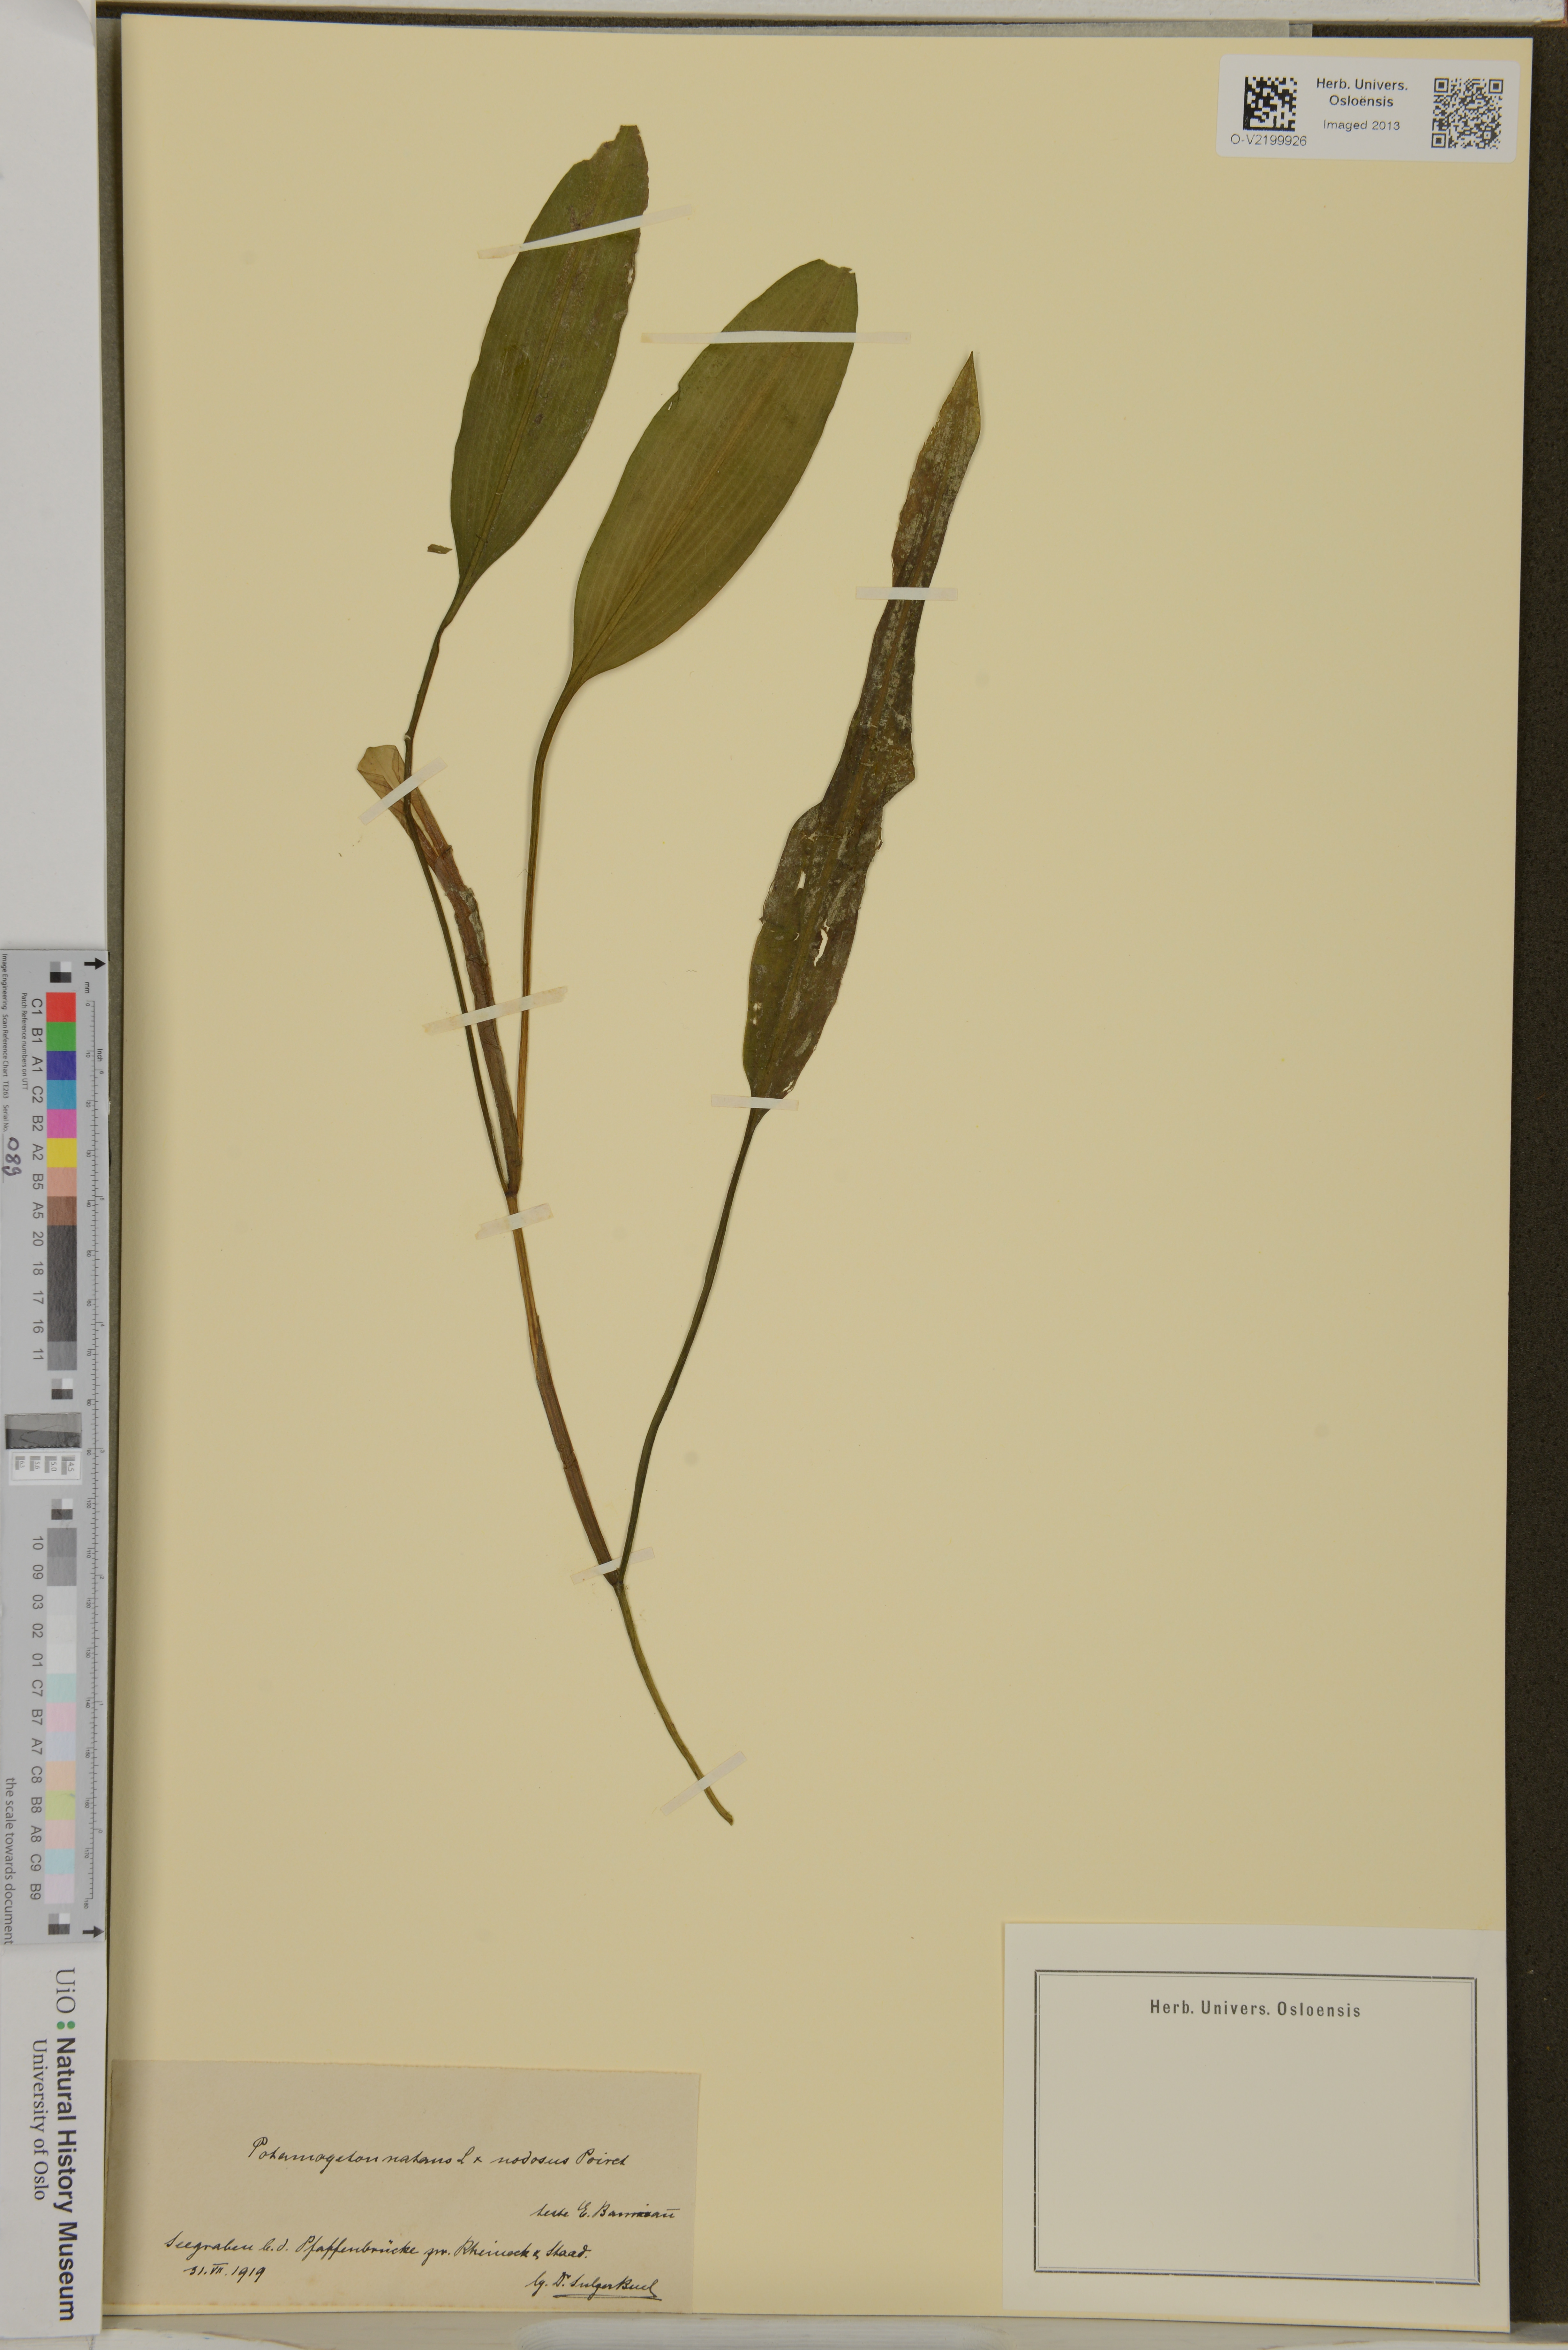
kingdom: Plantae
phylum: Tracheophyta
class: Liliopsida
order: Alismatales
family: Potamogetonaceae
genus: Potamogeton
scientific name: Potamogeton nodosus
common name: Loddon pondweed
